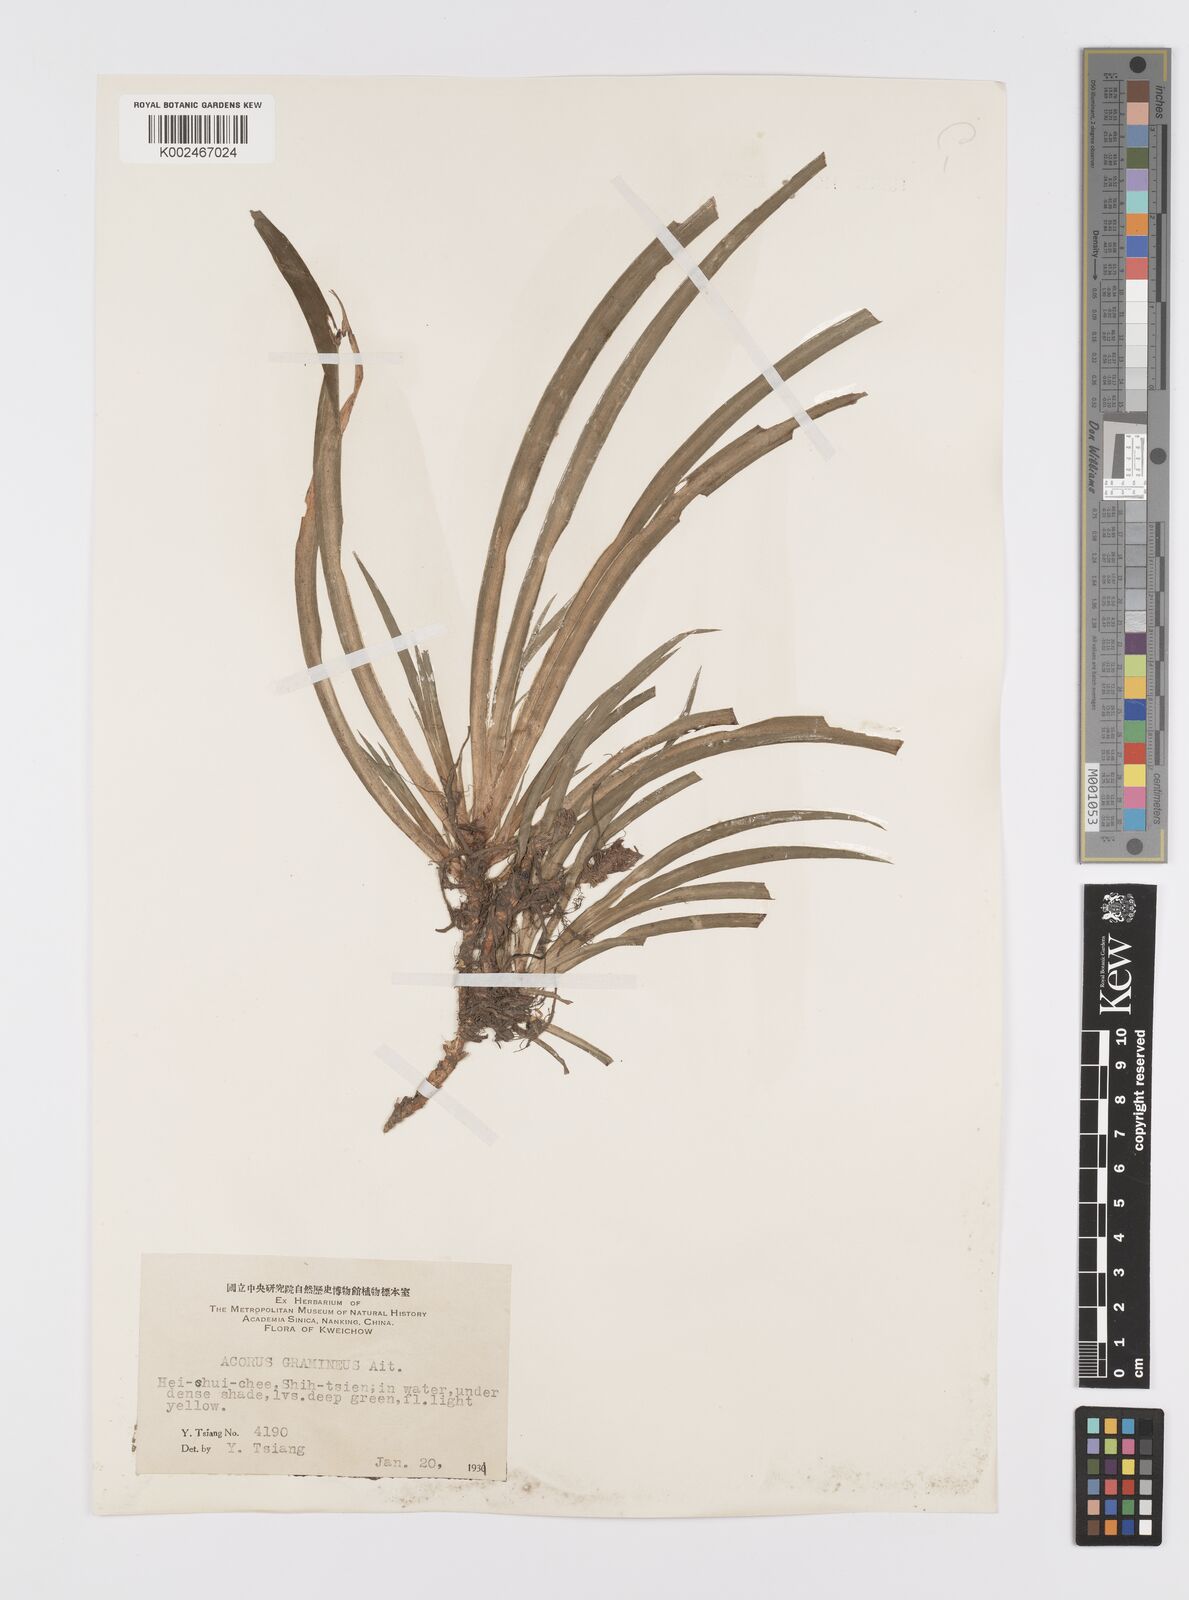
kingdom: Plantae
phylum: Tracheophyta
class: Liliopsida
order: Acorales
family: Acoraceae
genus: Acorus
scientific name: Acorus gramineus
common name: Slender sweet-flag
